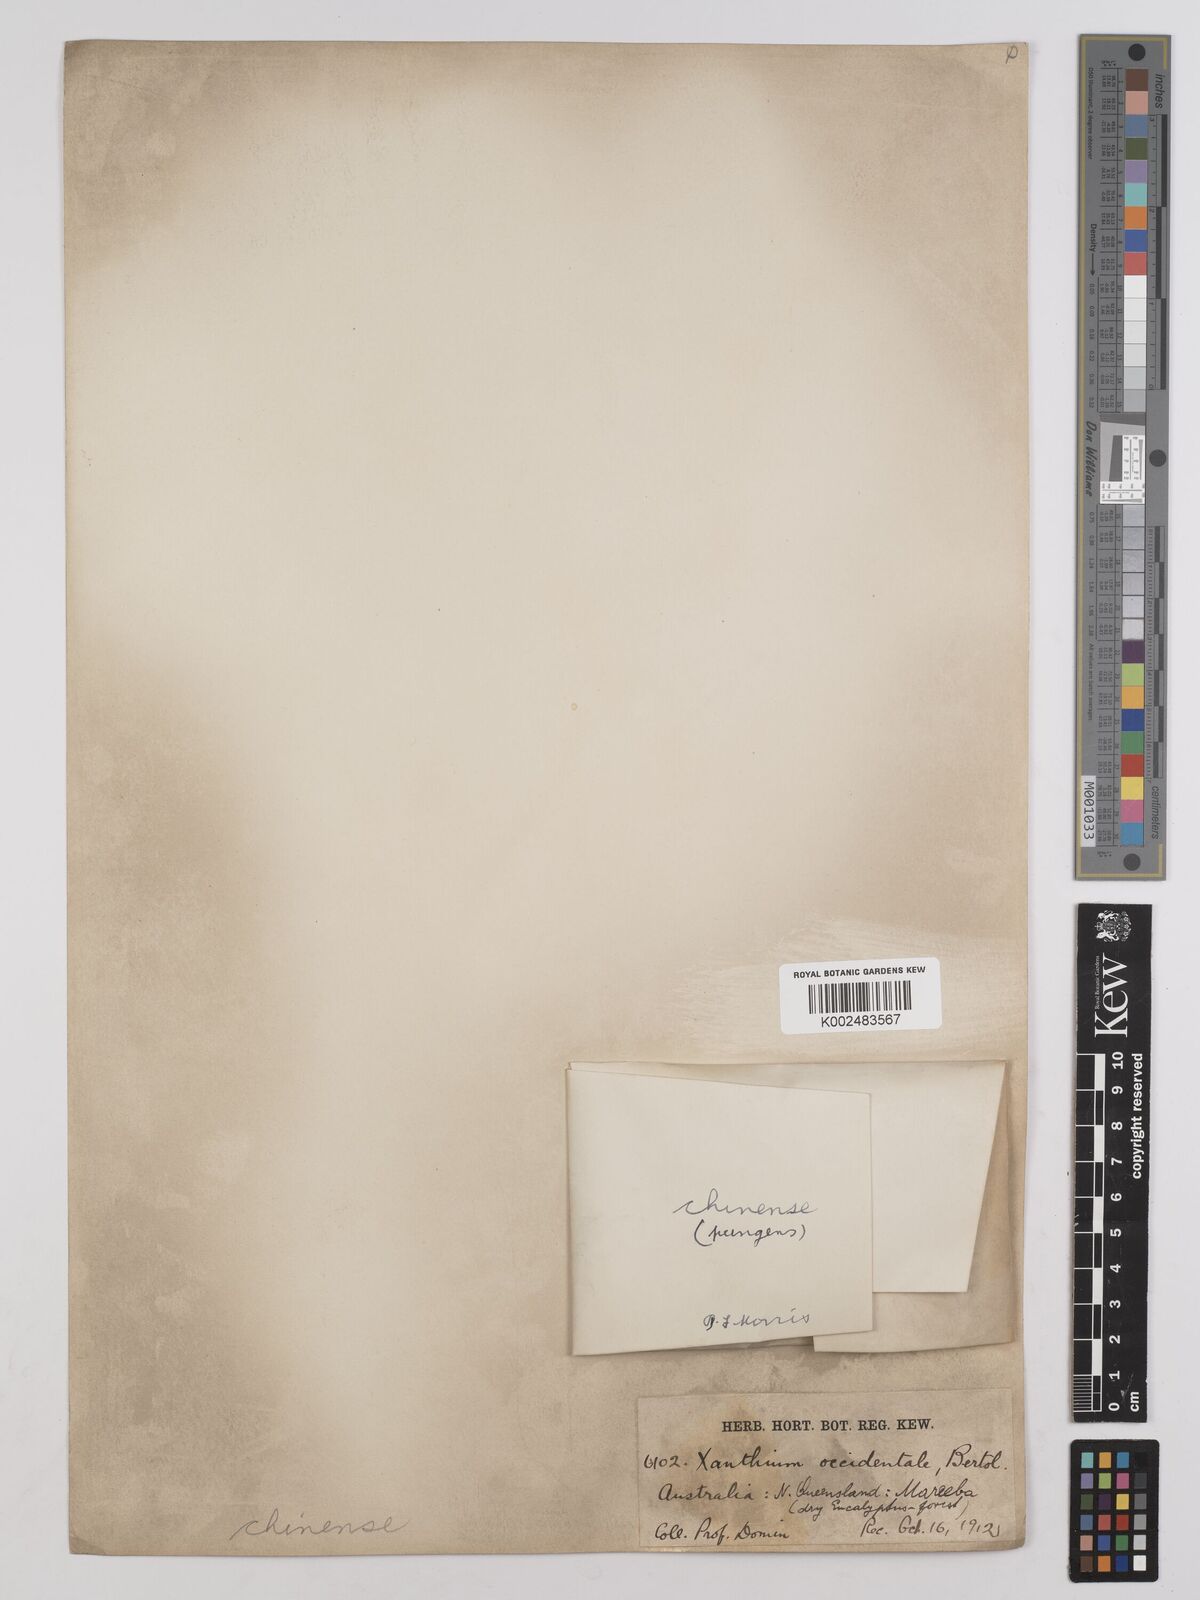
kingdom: Plantae
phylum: Tracheophyta
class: Magnoliopsida
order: Asterales
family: Asteraceae
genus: Xanthium
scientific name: Xanthium spinosum
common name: Spiny cocklebur
